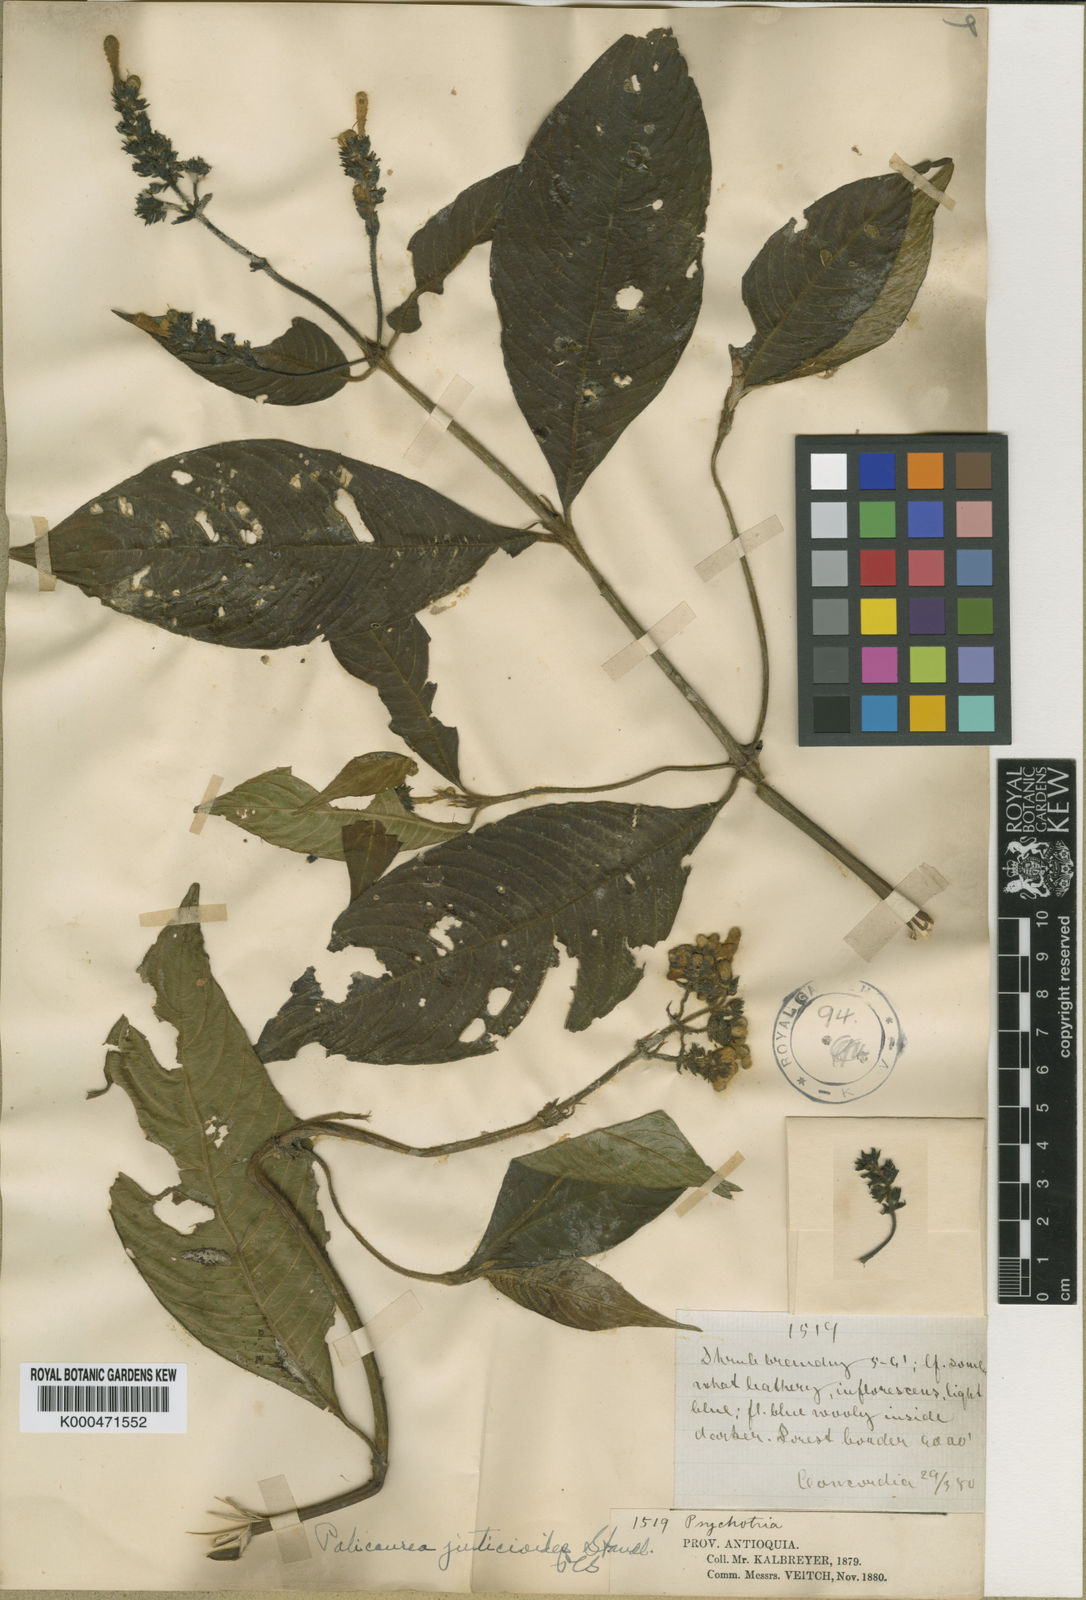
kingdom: Plantae
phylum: Tracheophyta
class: Magnoliopsida
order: Gentianales
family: Rubiaceae
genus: Palicourea
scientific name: Palicourea justicioides
